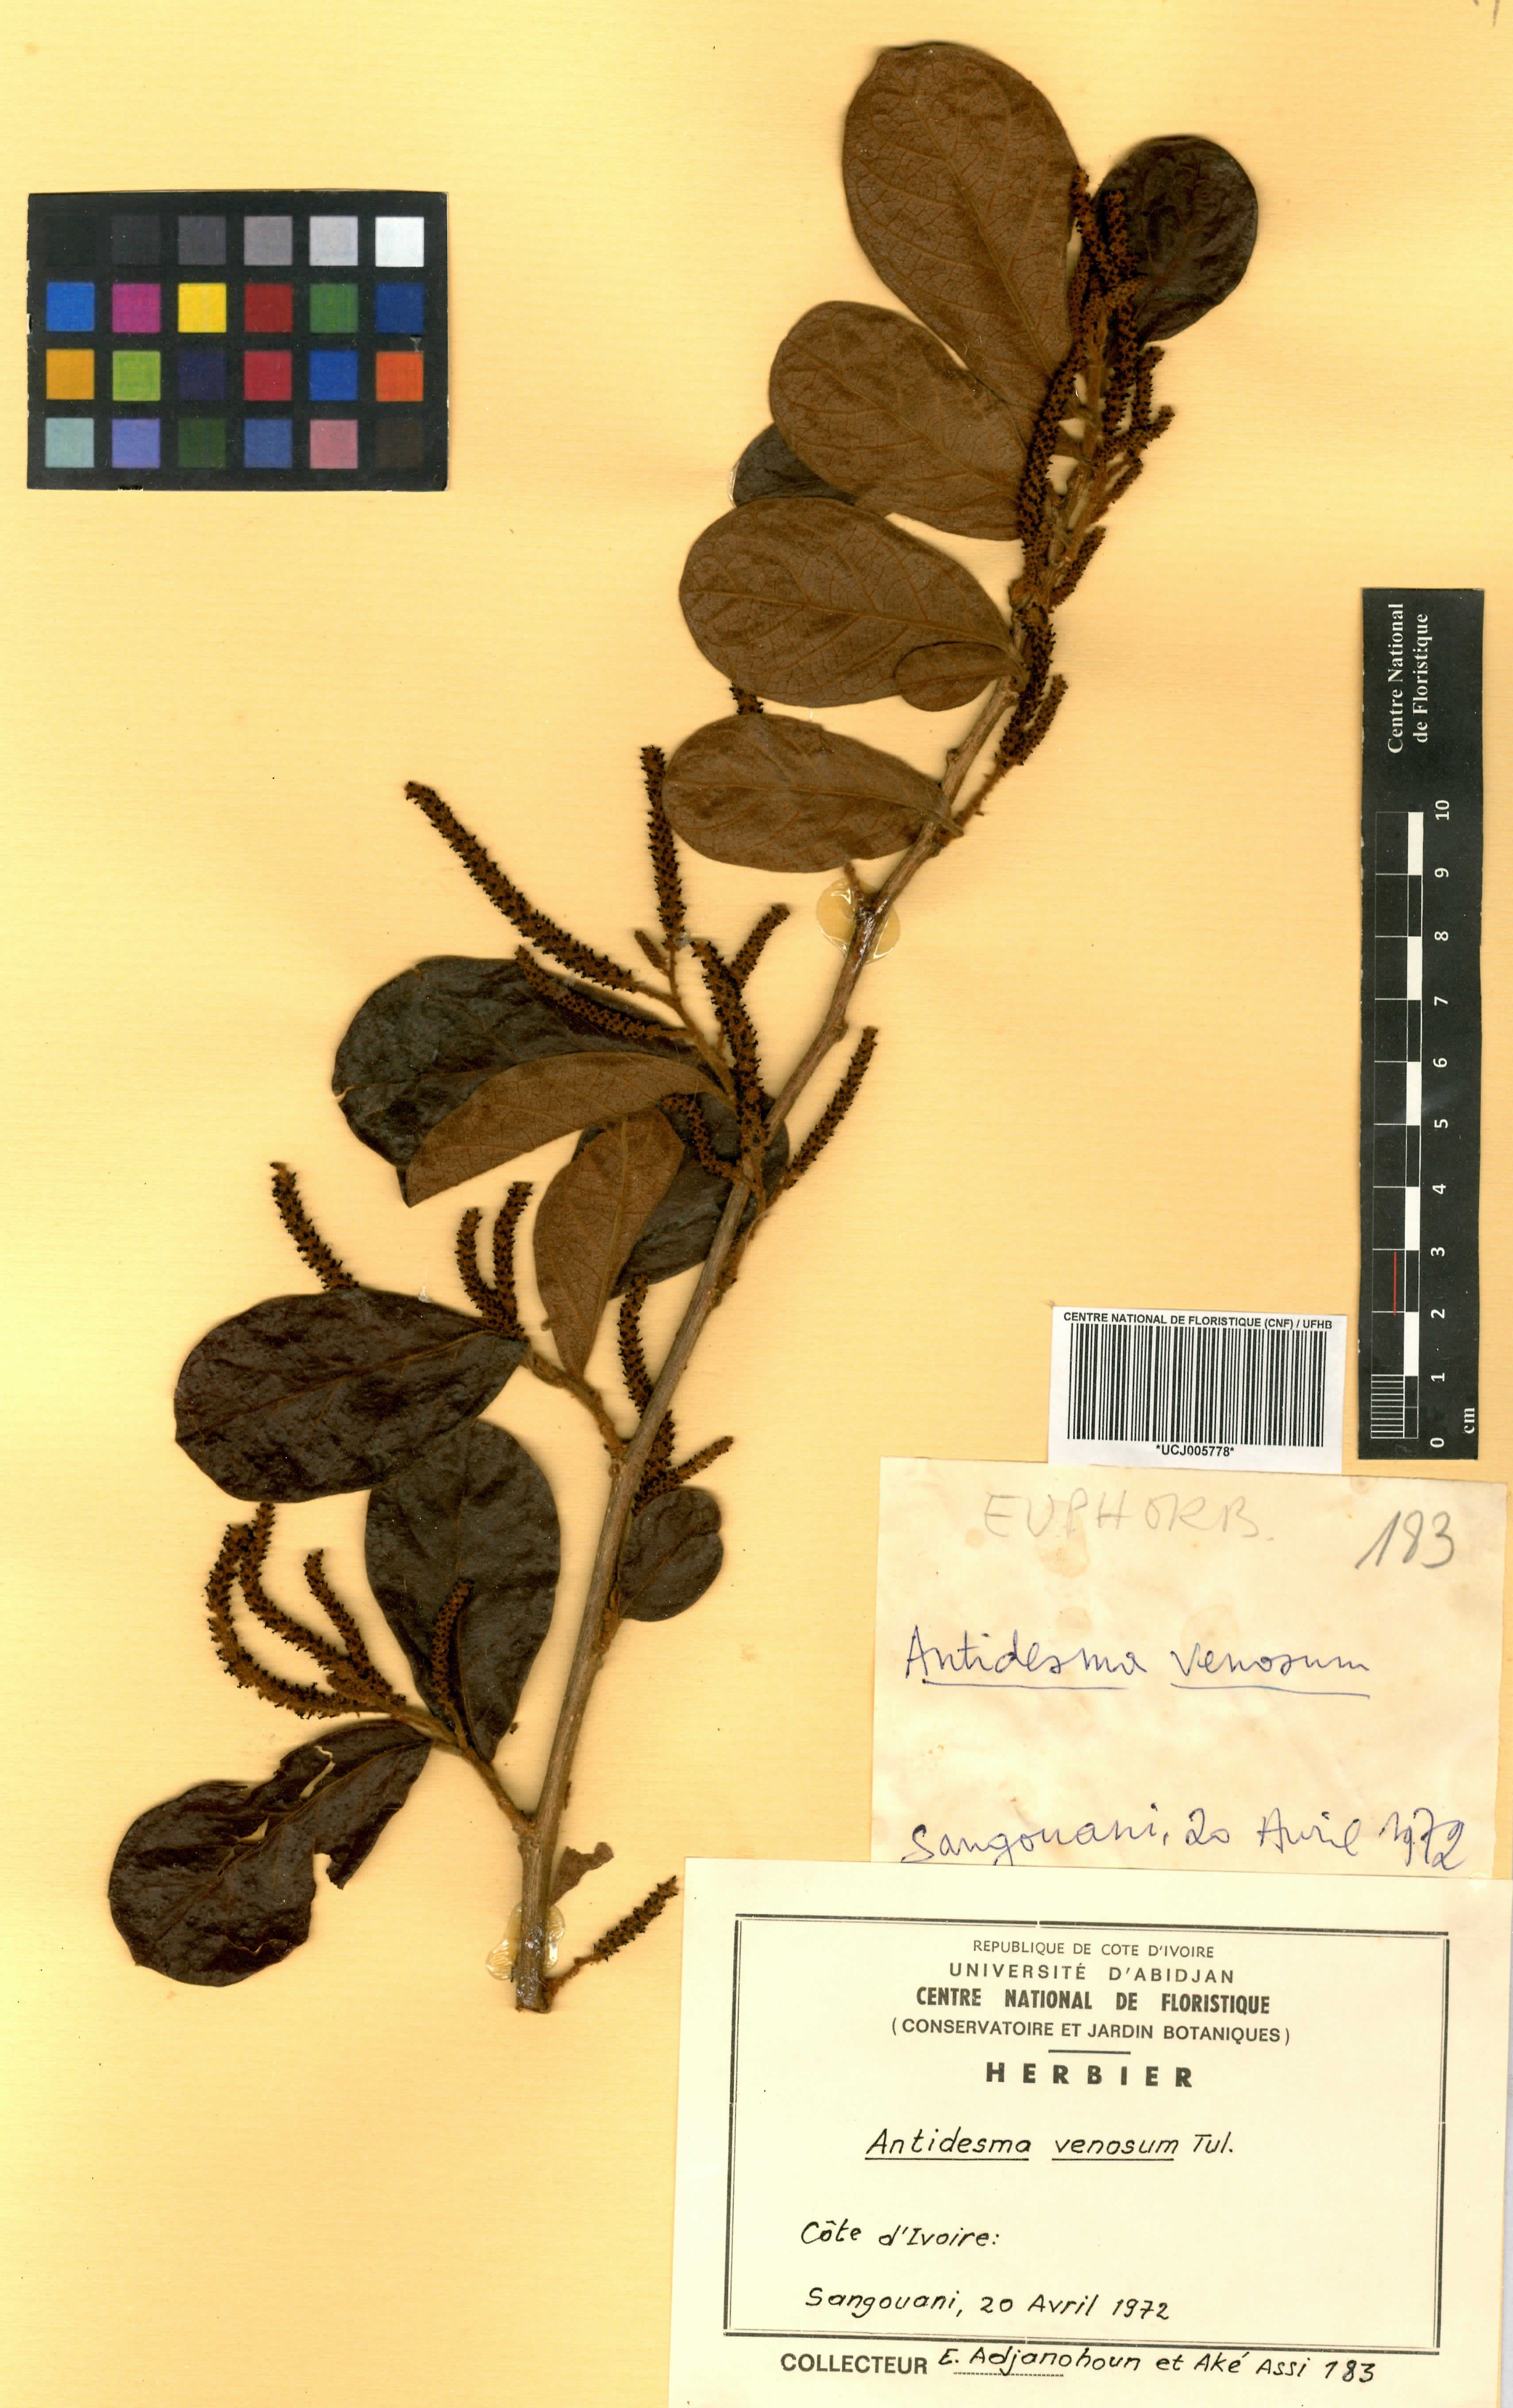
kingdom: Plantae
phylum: Tracheophyta
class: Magnoliopsida
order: Malpighiales
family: Phyllanthaceae
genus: Antidesma
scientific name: Antidesma venosum
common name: Tassel-berry
